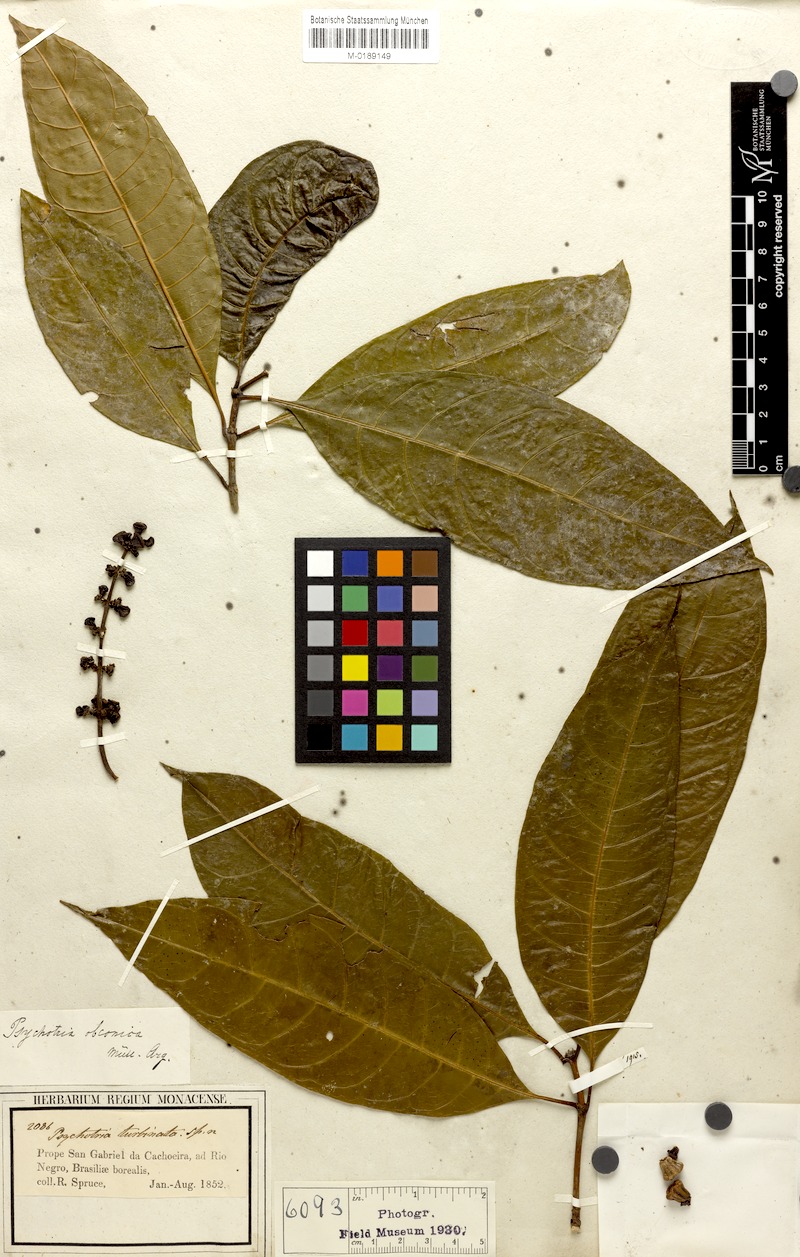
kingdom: Plantae
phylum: Tracheophyta
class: Magnoliopsida
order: Gentianales
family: Rubiaceae
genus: Palicourea
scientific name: Palicourea obconica
